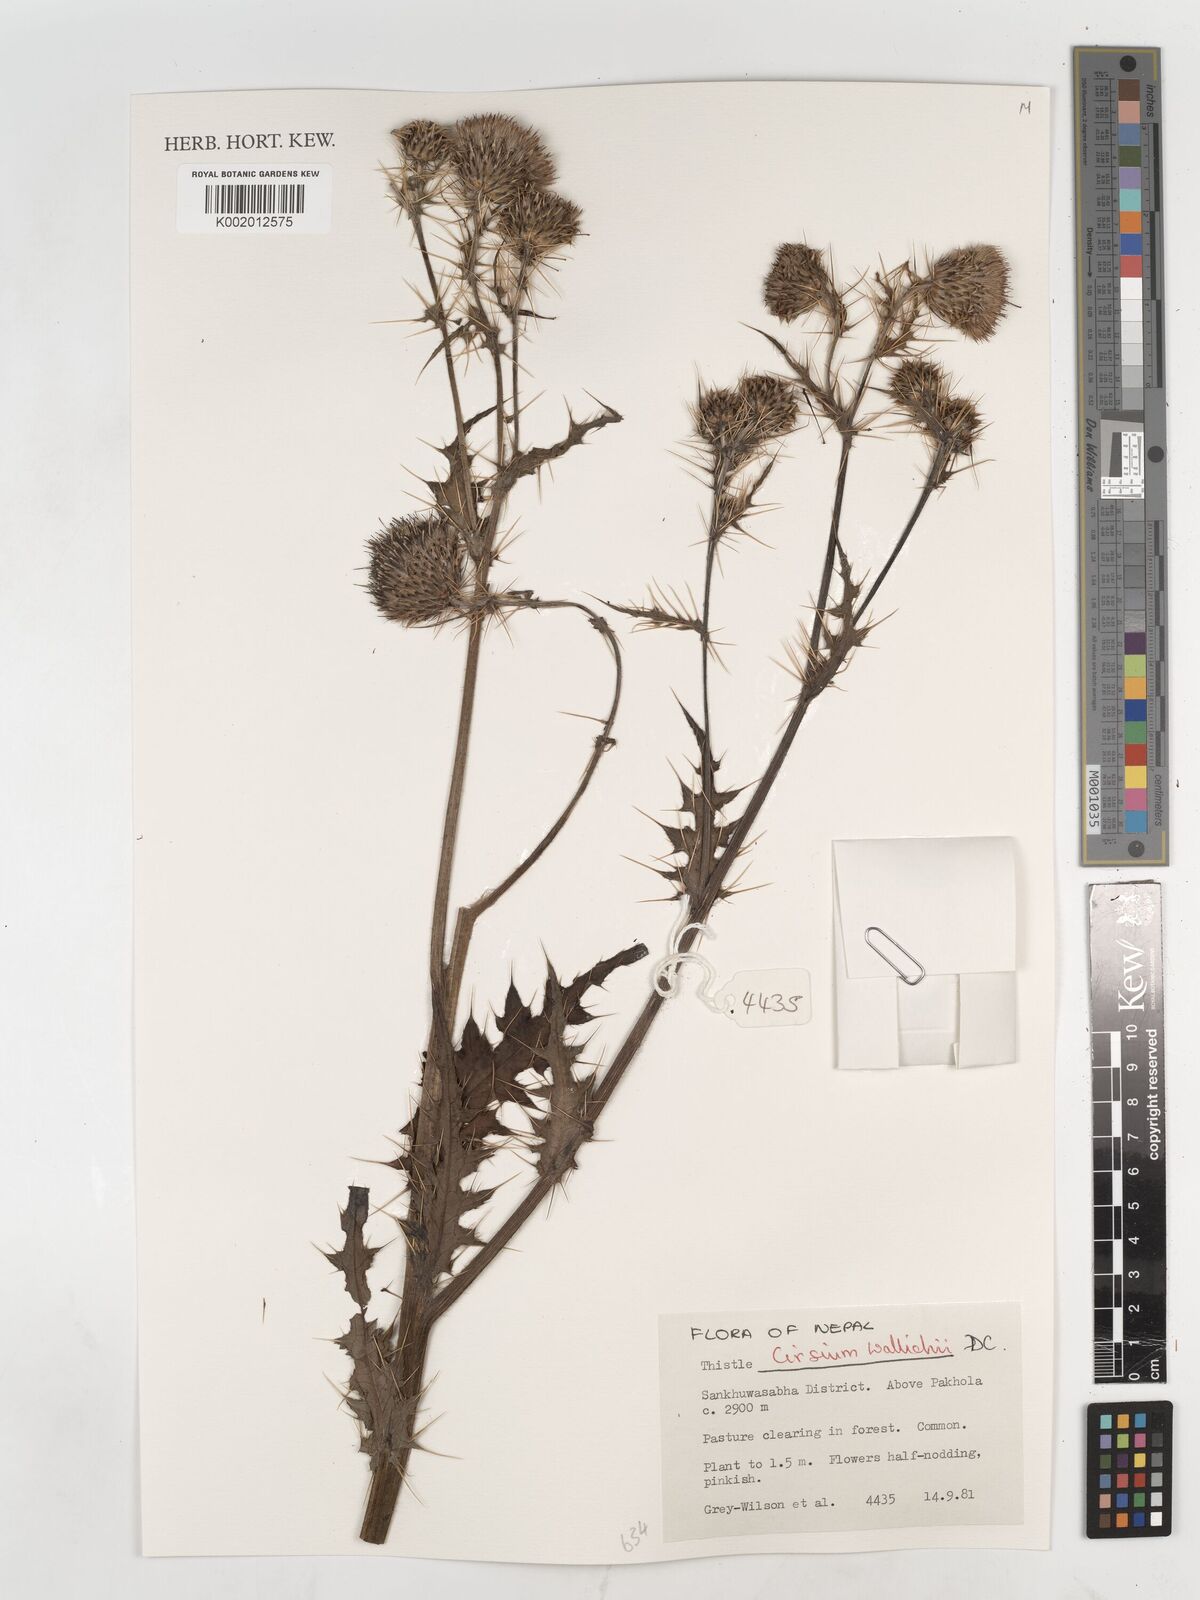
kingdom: Plantae
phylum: Tracheophyta
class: Magnoliopsida
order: Asterales
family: Asteraceae
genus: Cirsium
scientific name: Cirsium wallichii
